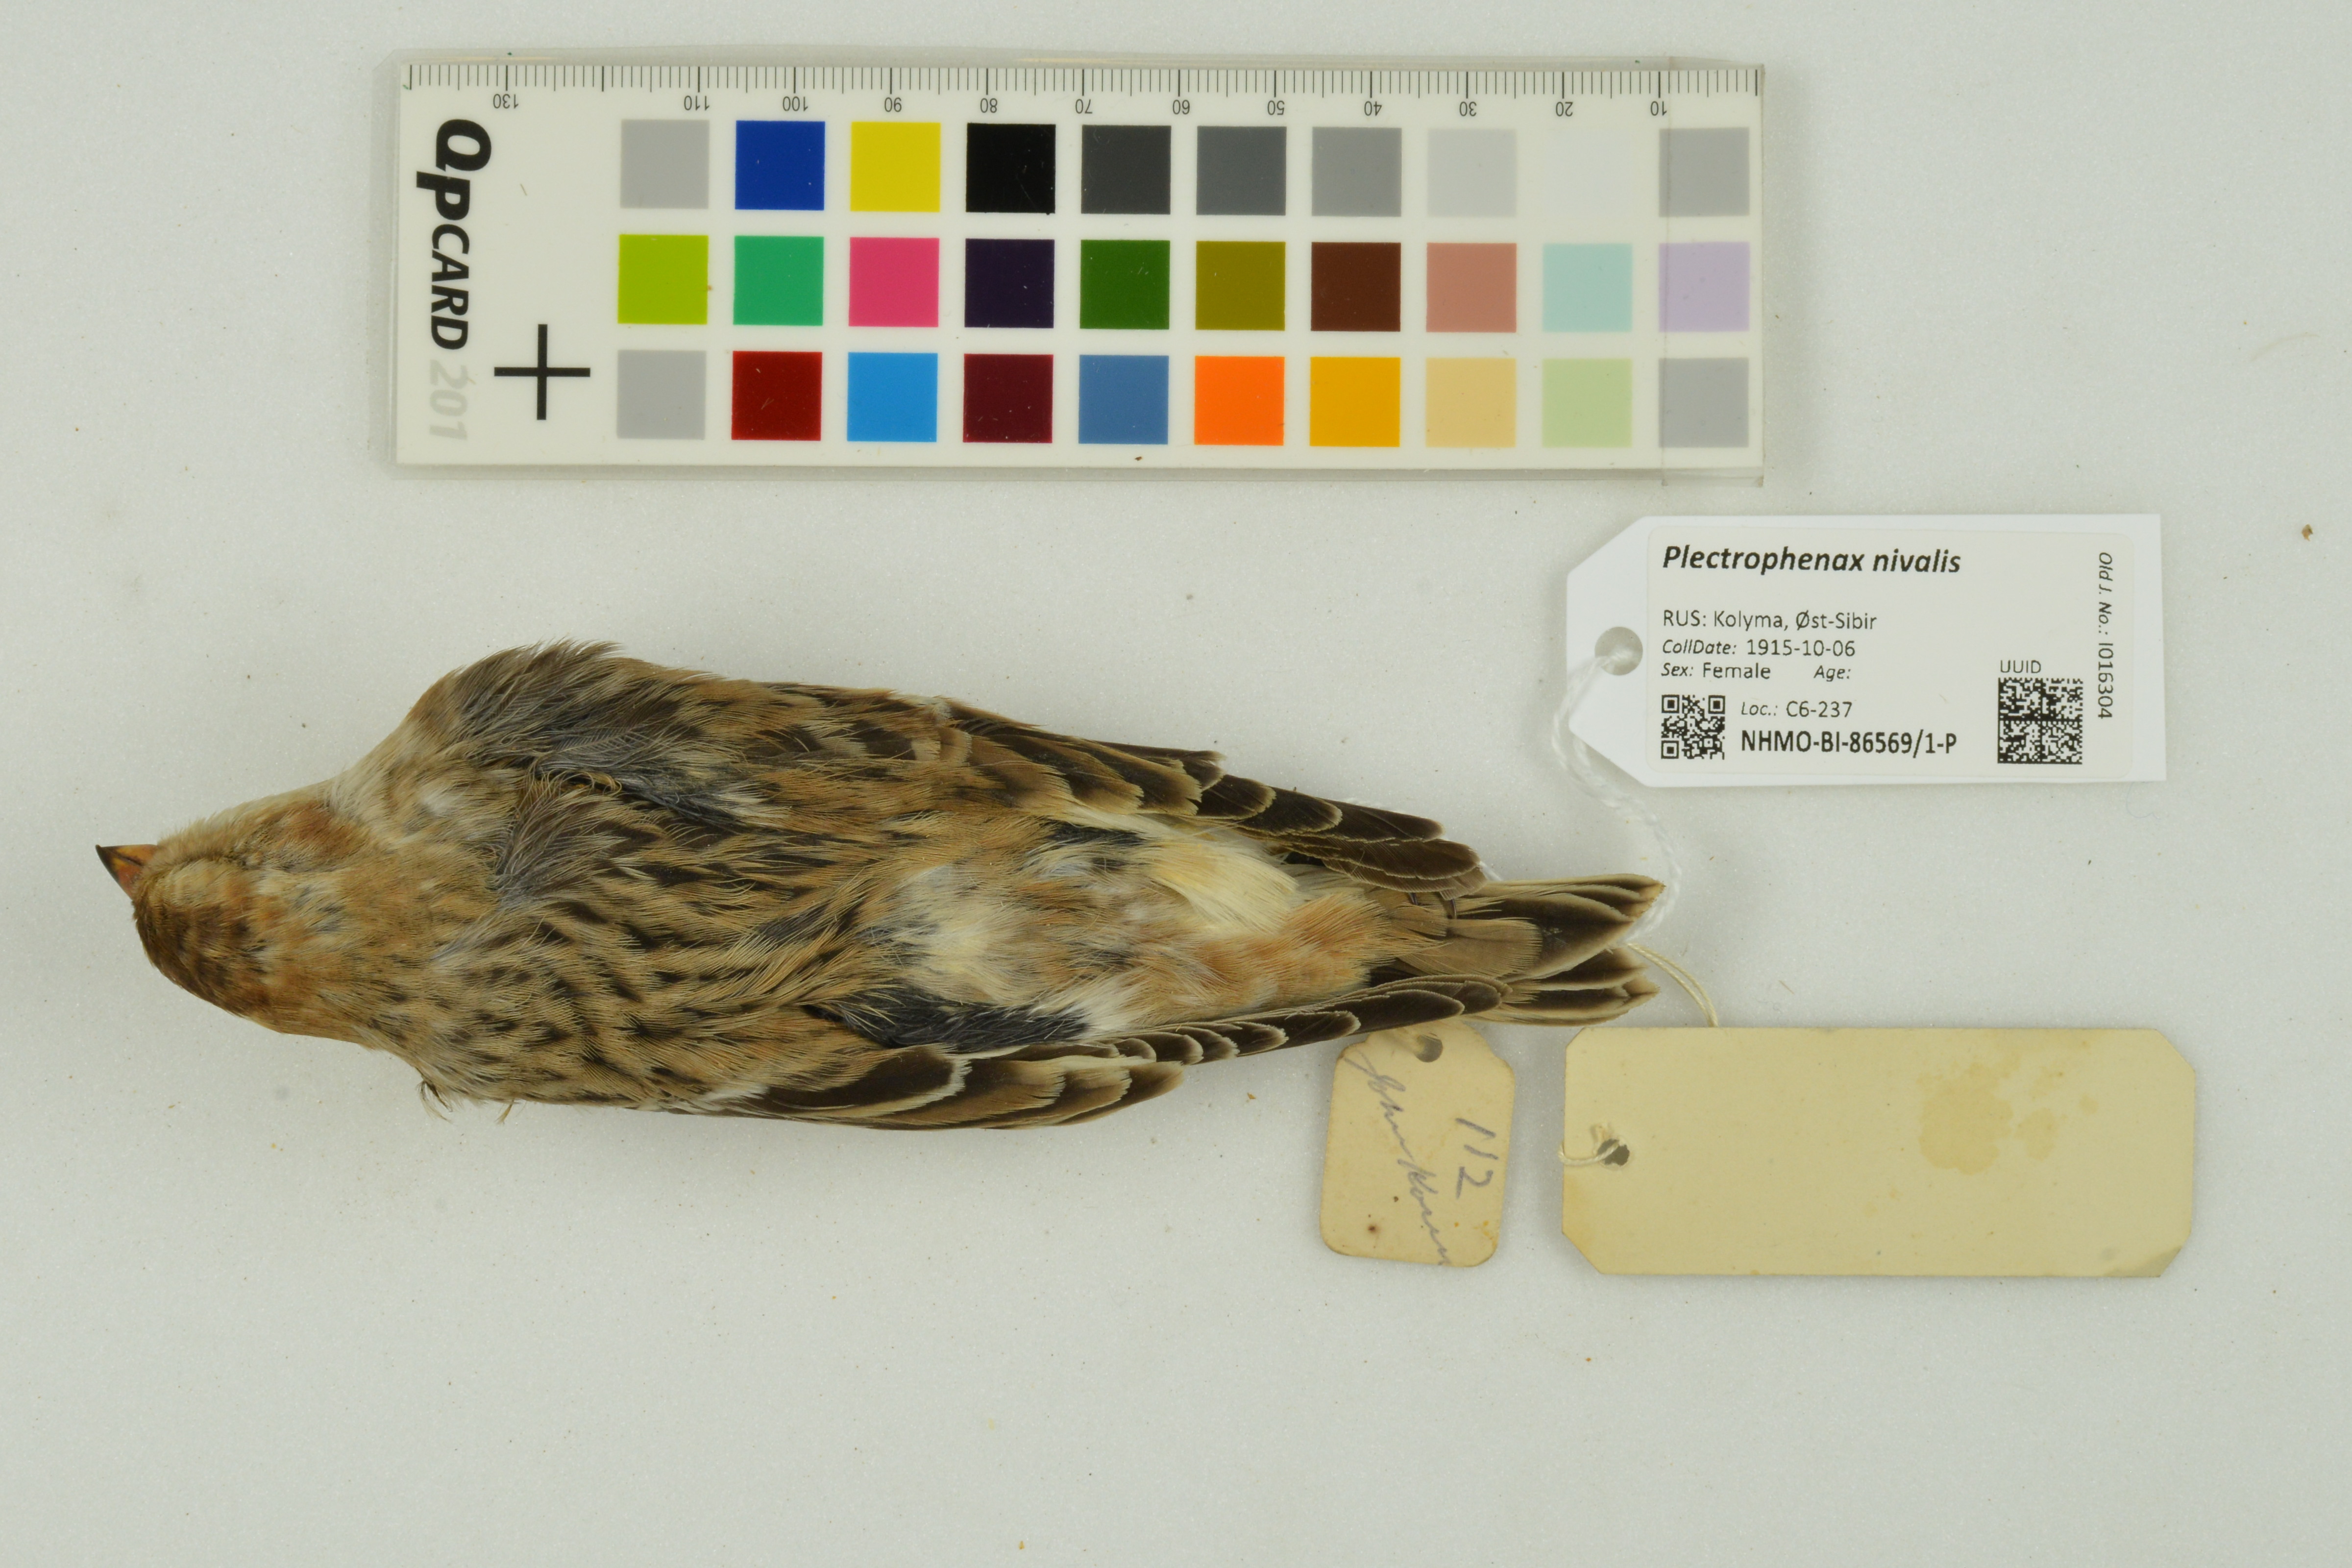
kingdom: Animalia
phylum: Chordata
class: Aves
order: Passeriformes
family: Calcariidae
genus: Plectrophenax
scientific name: Plectrophenax nivalis
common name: Snow bunting
